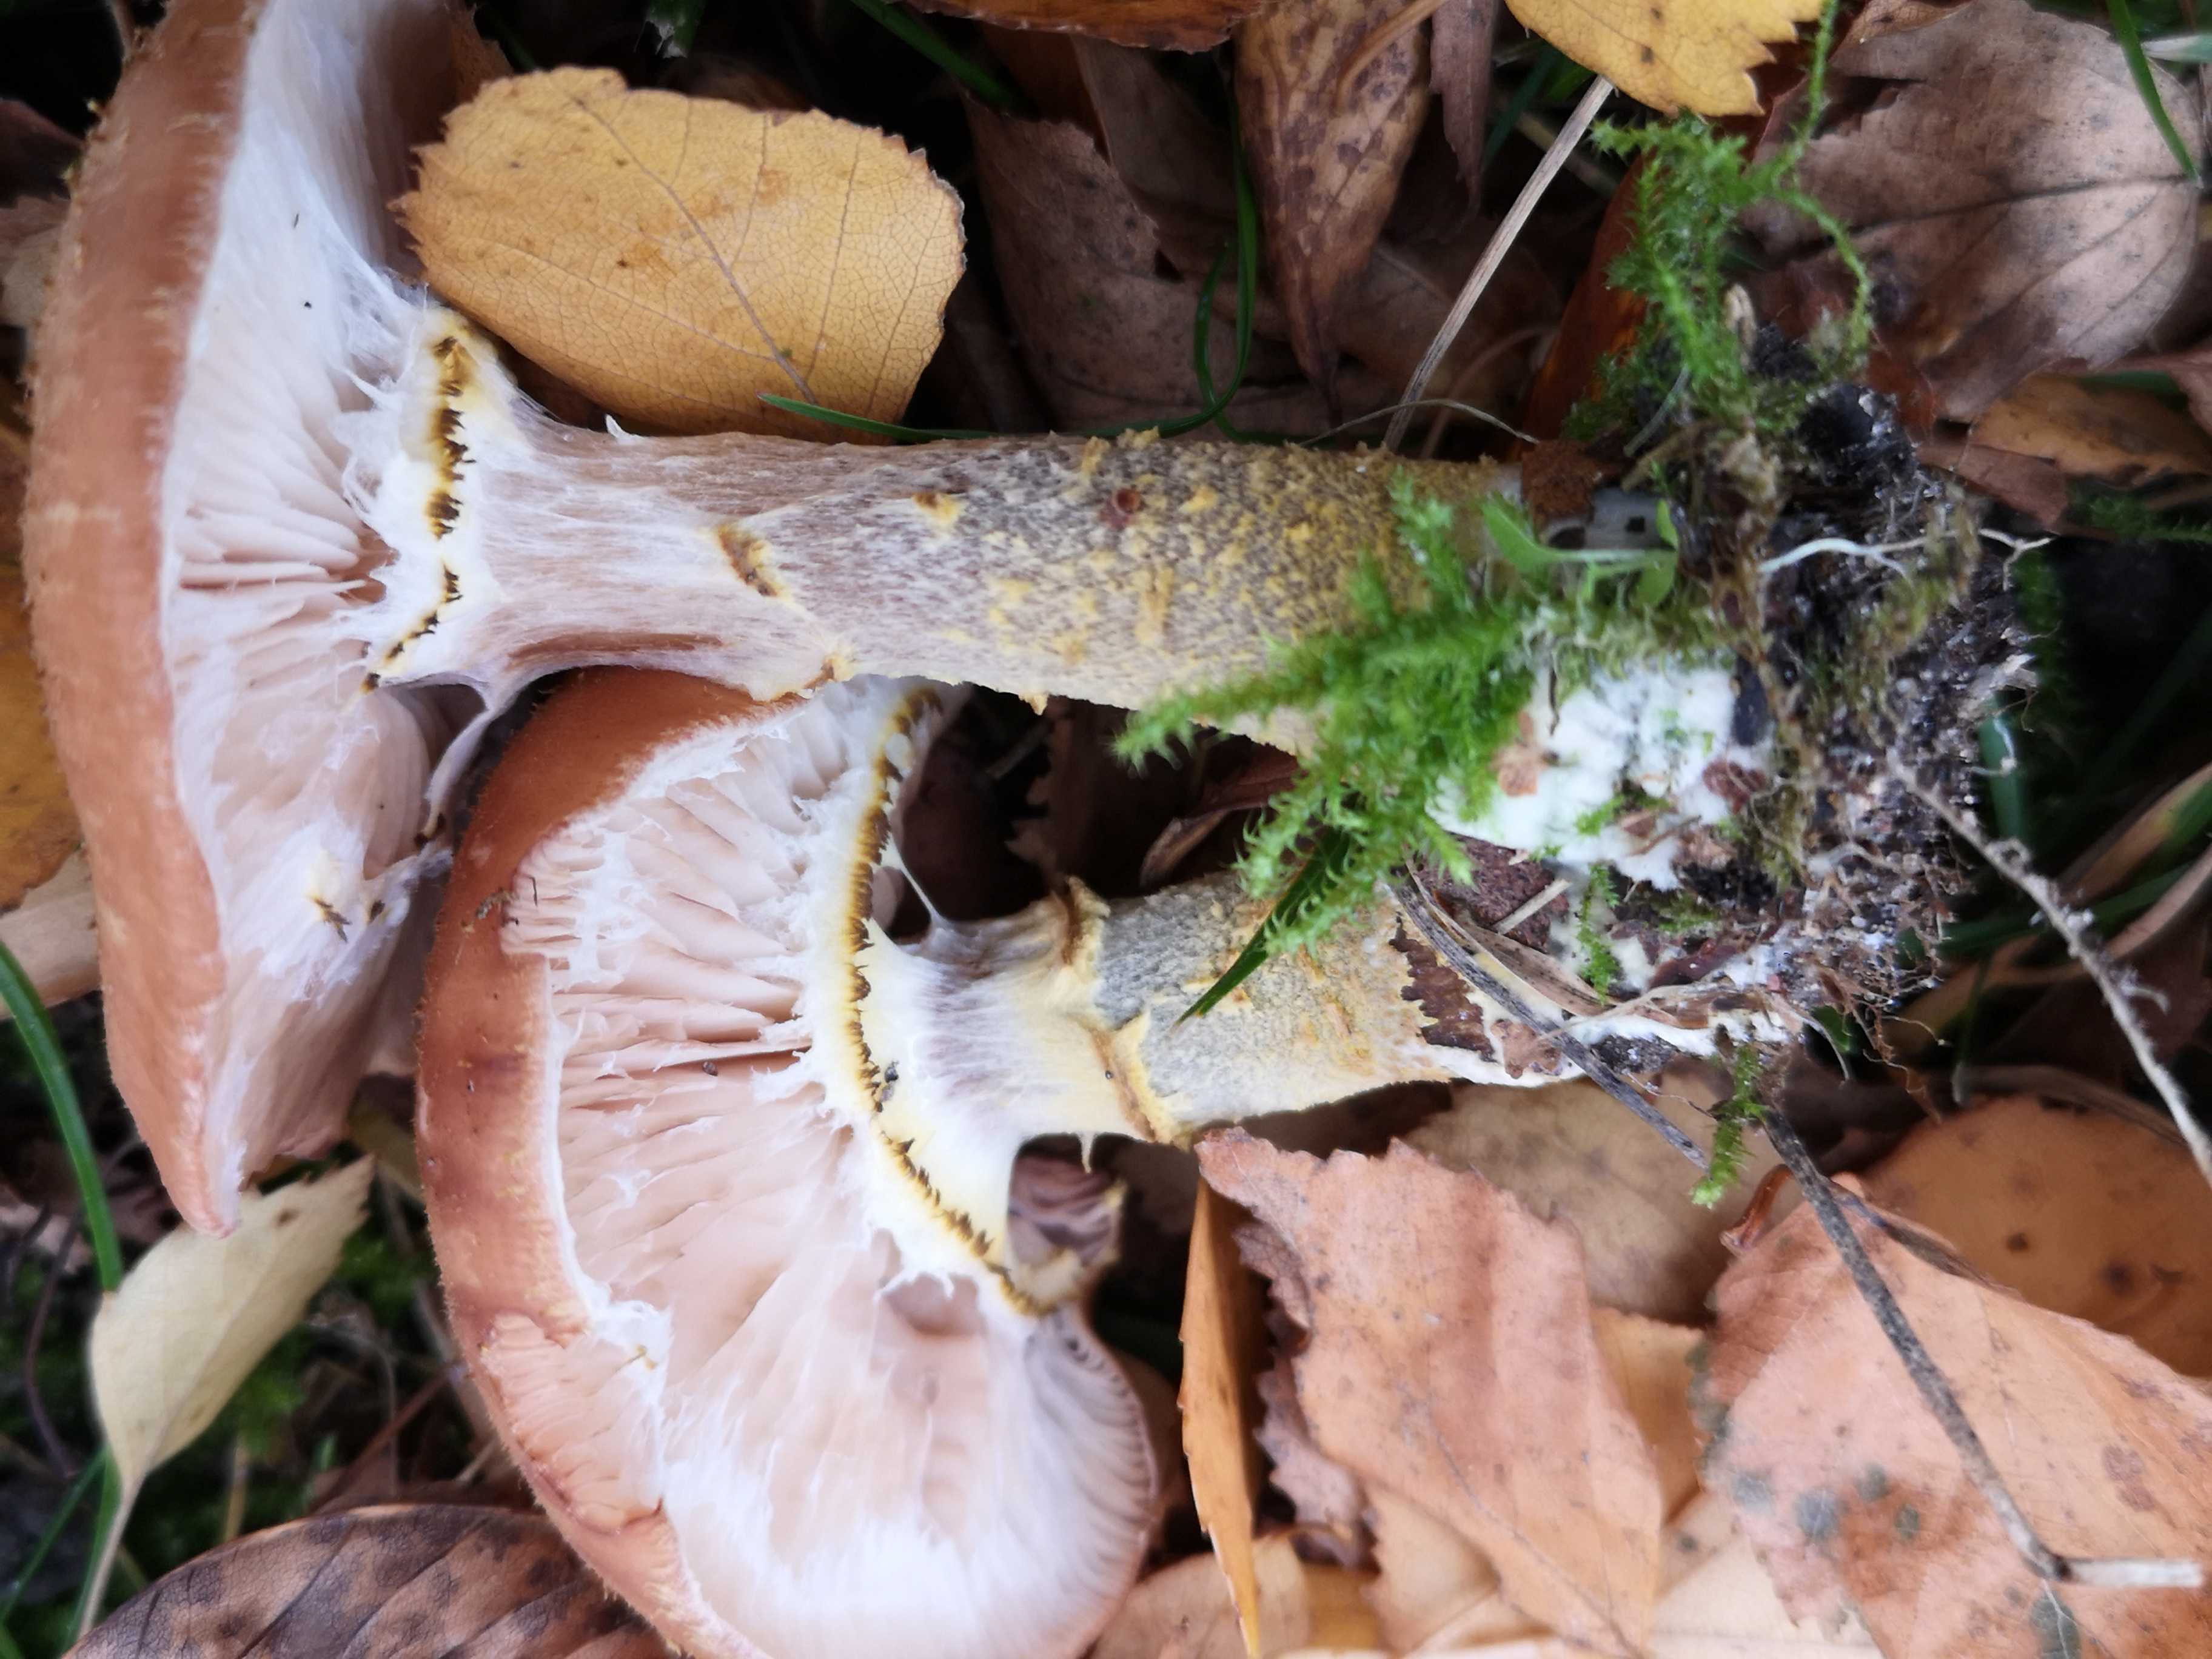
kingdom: Fungi
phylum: Basidiomycota
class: Agaricomycetes
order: Agaricales
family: Physalacriaceae
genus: Armillaria
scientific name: Armillaria lutea
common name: køllestokket honningsvamp
